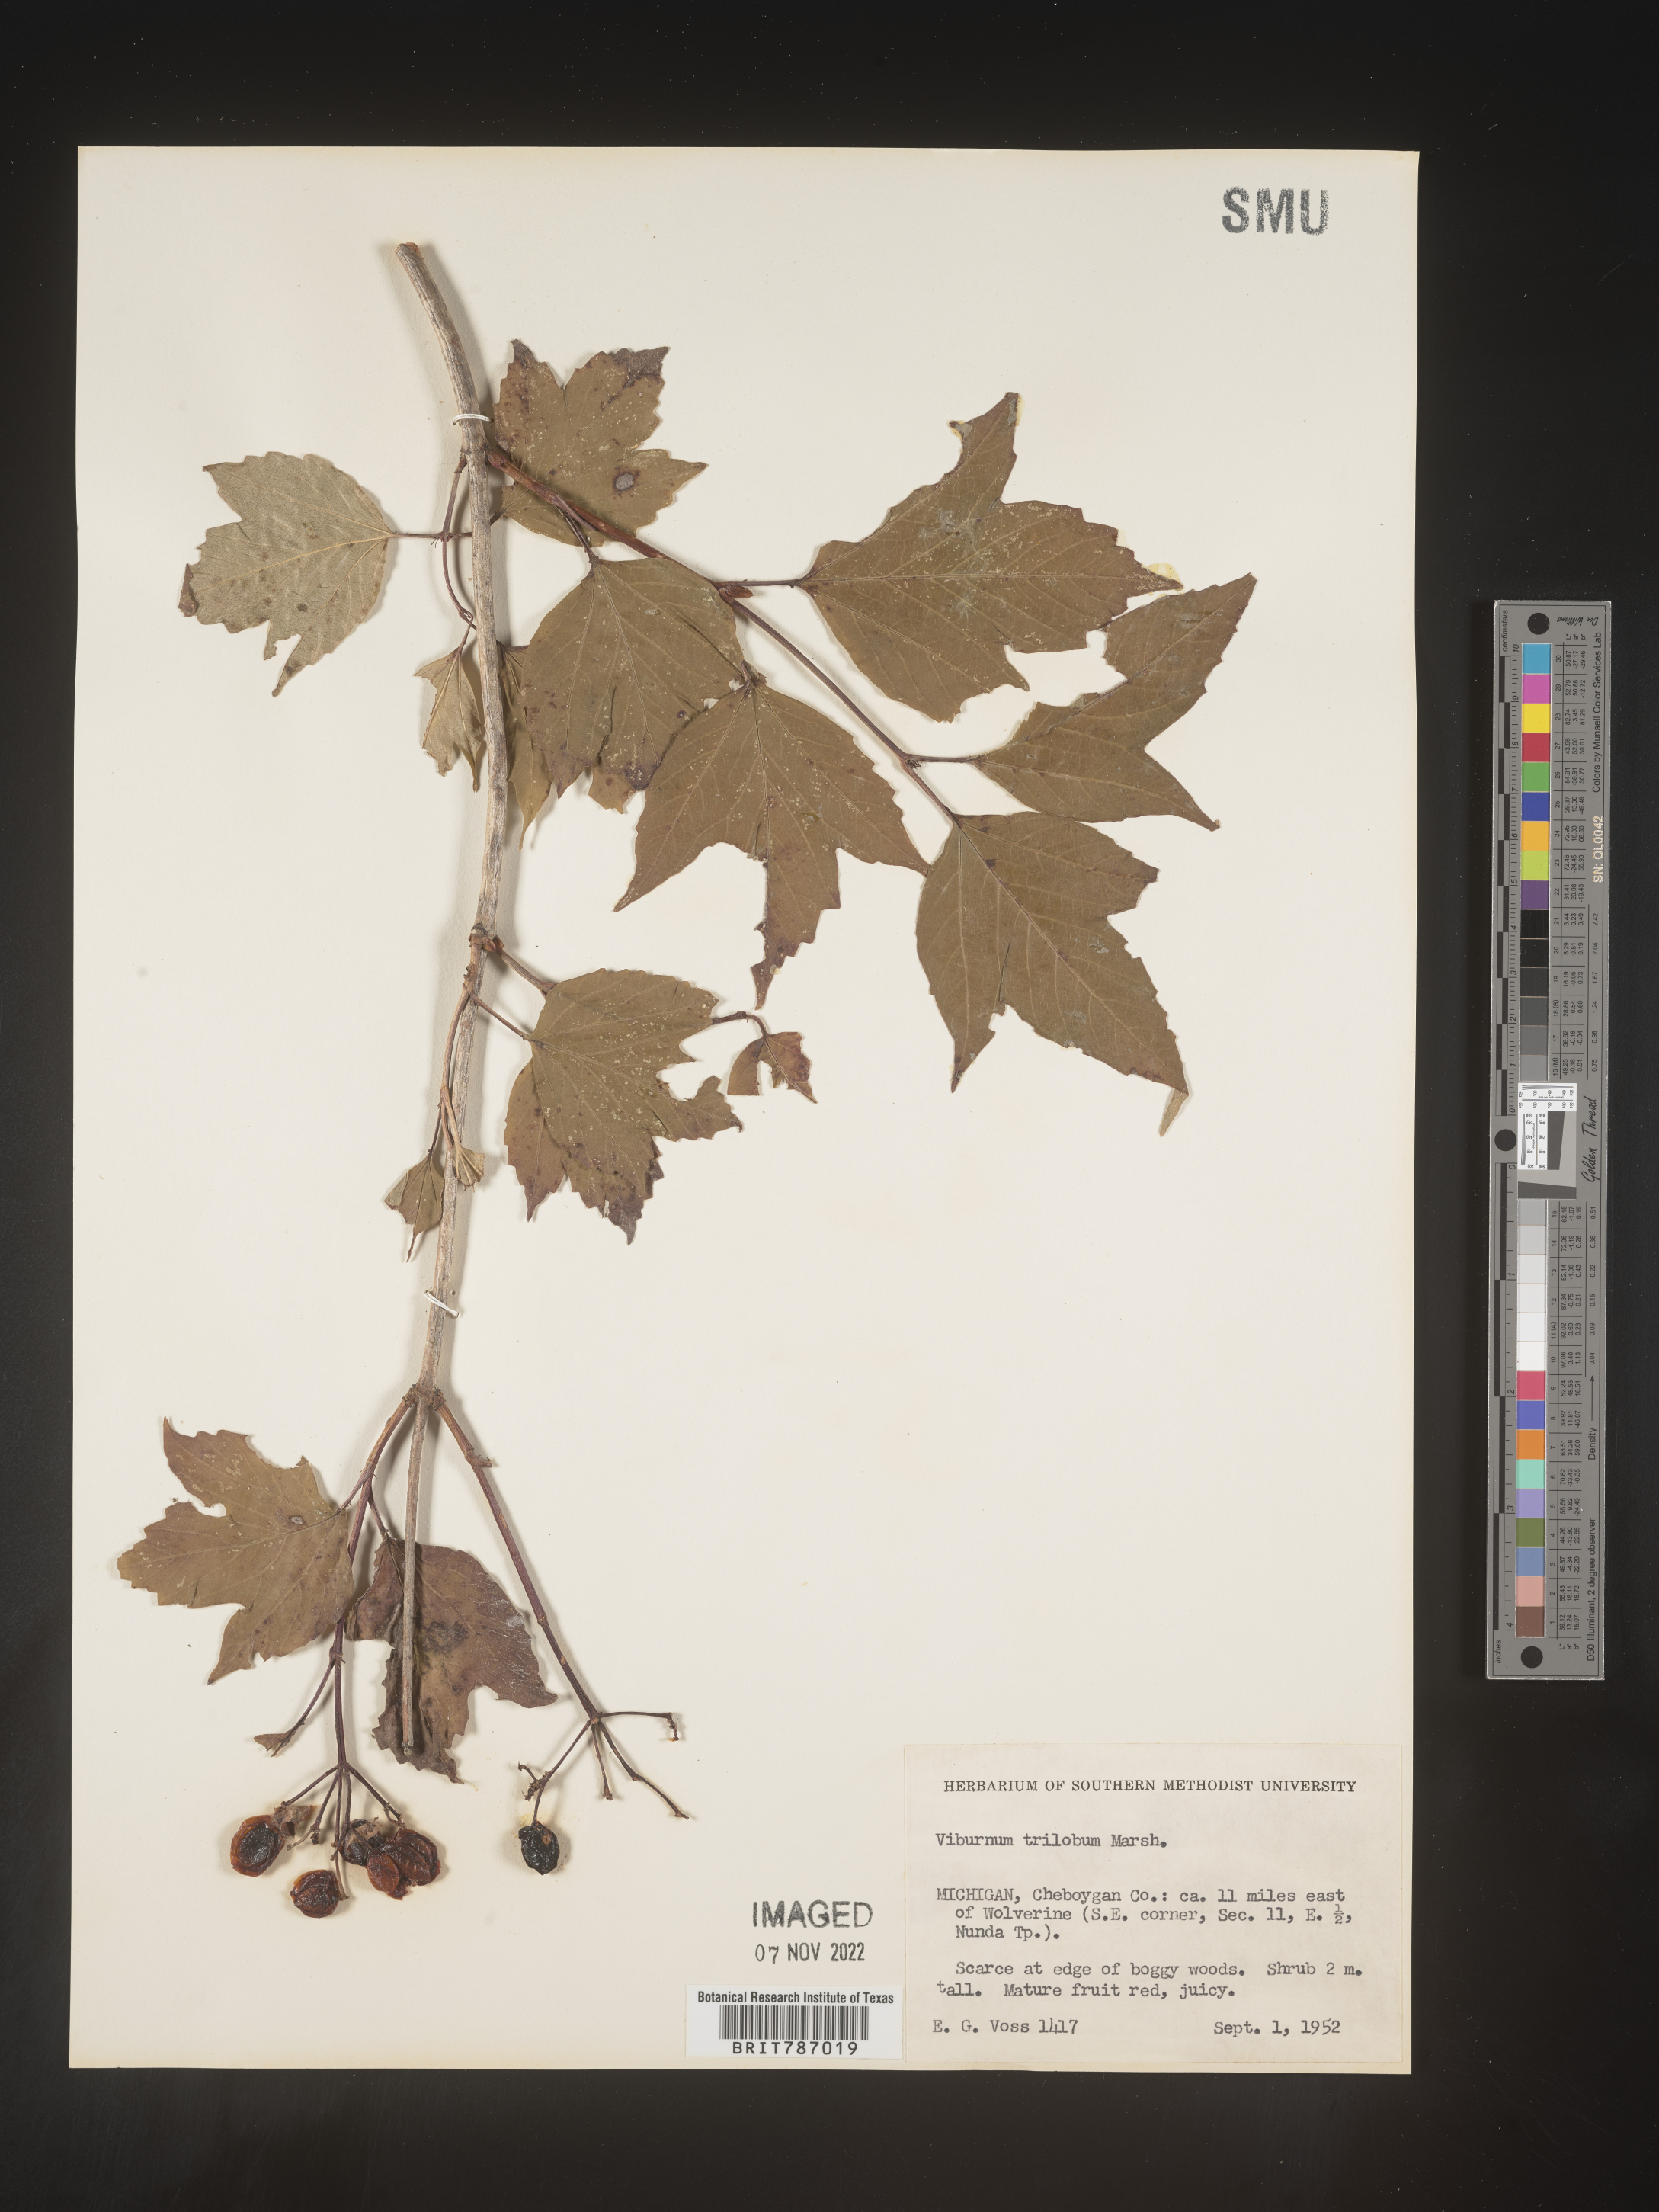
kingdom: Plantae
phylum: Tracheophyta
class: Magnoliopsida
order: Dipsacales
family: Viburnaceae
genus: Viburnum
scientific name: Viburnum opulus
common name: Guelder-rose
